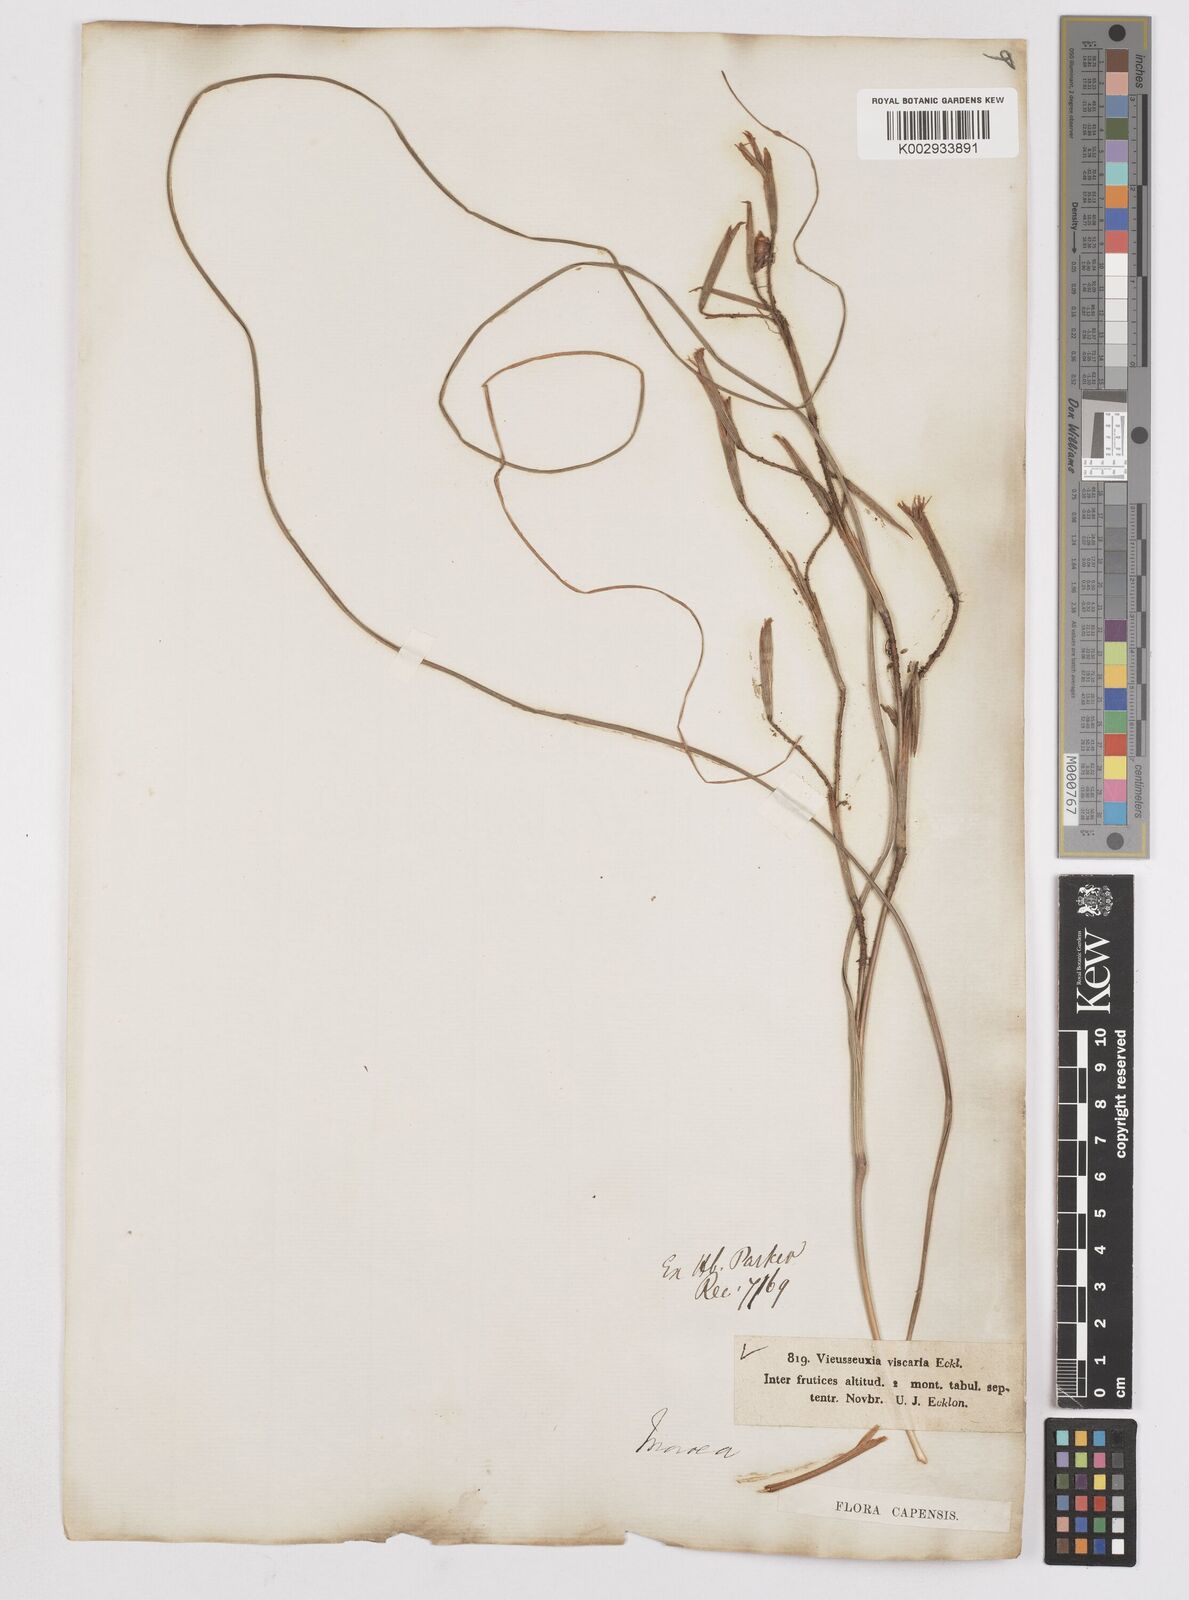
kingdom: Plantae
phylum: Tracheophyta
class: Liliopsida
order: Asparagales
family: Iridaceae
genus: Moraea
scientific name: Moraea viscaria
